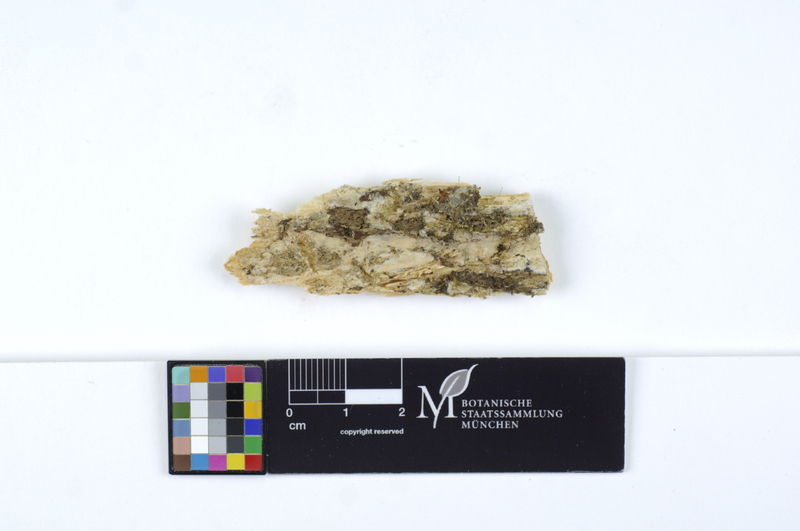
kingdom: Plantae
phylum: Tracheophyta
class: Pinopsida
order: Pinales
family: Pinaceae
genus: Abies
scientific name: Abies
